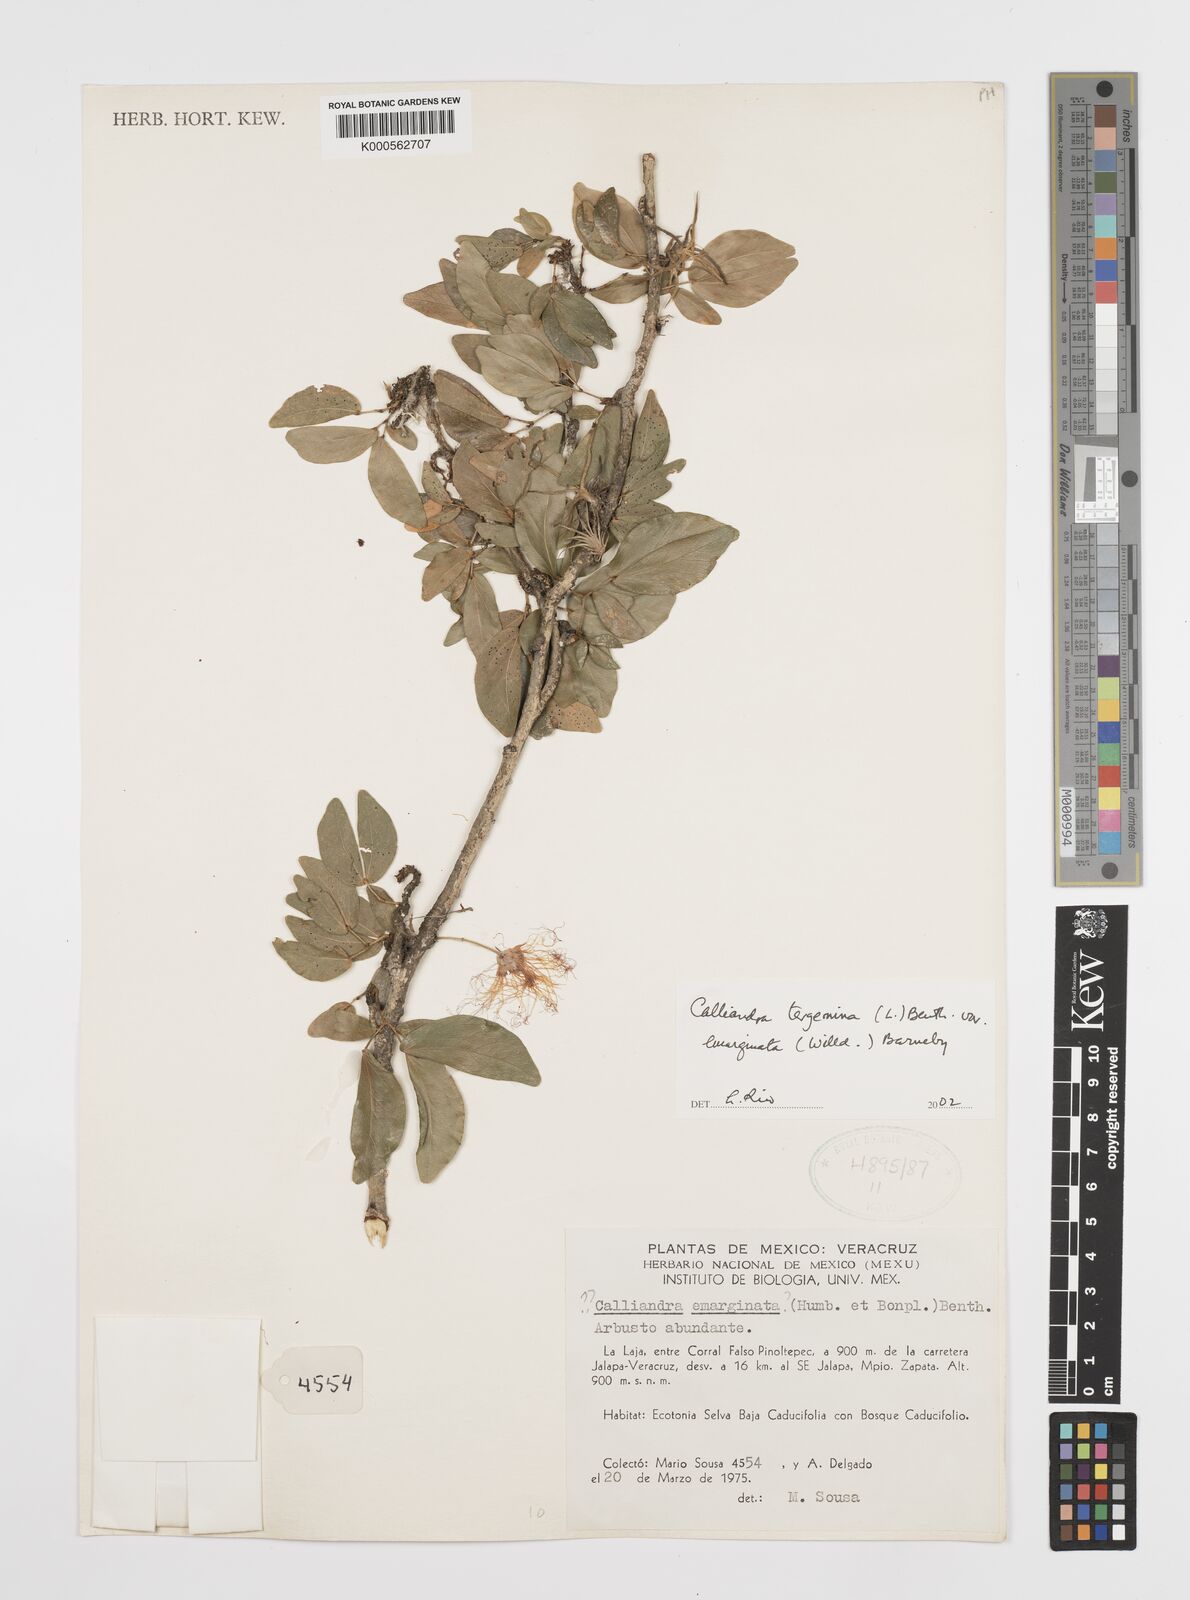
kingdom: Plantae
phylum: Tracheophyta
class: Magnoliopsida
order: Fabales
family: Fabaceae
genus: Calliandra
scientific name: Calliandra tergemina
